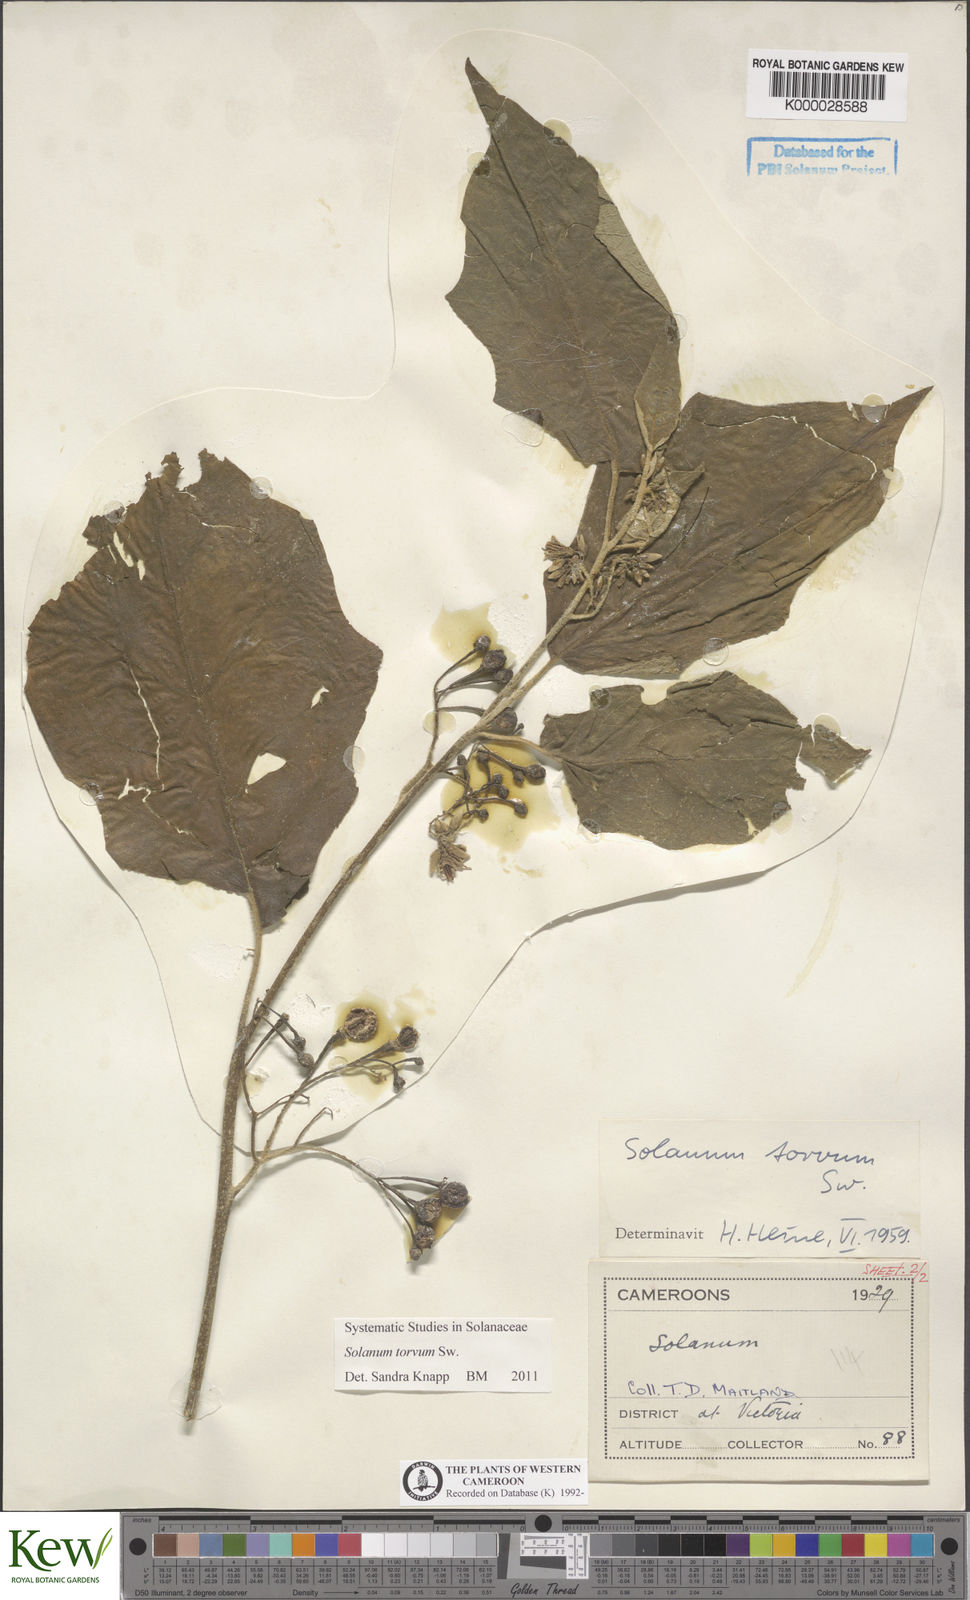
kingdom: Plantae
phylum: Tracheophyta
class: Magnoliopsida
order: Solanales
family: Solanaceae
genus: Solanum
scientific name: Solanum torvum
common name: Turkey berry
